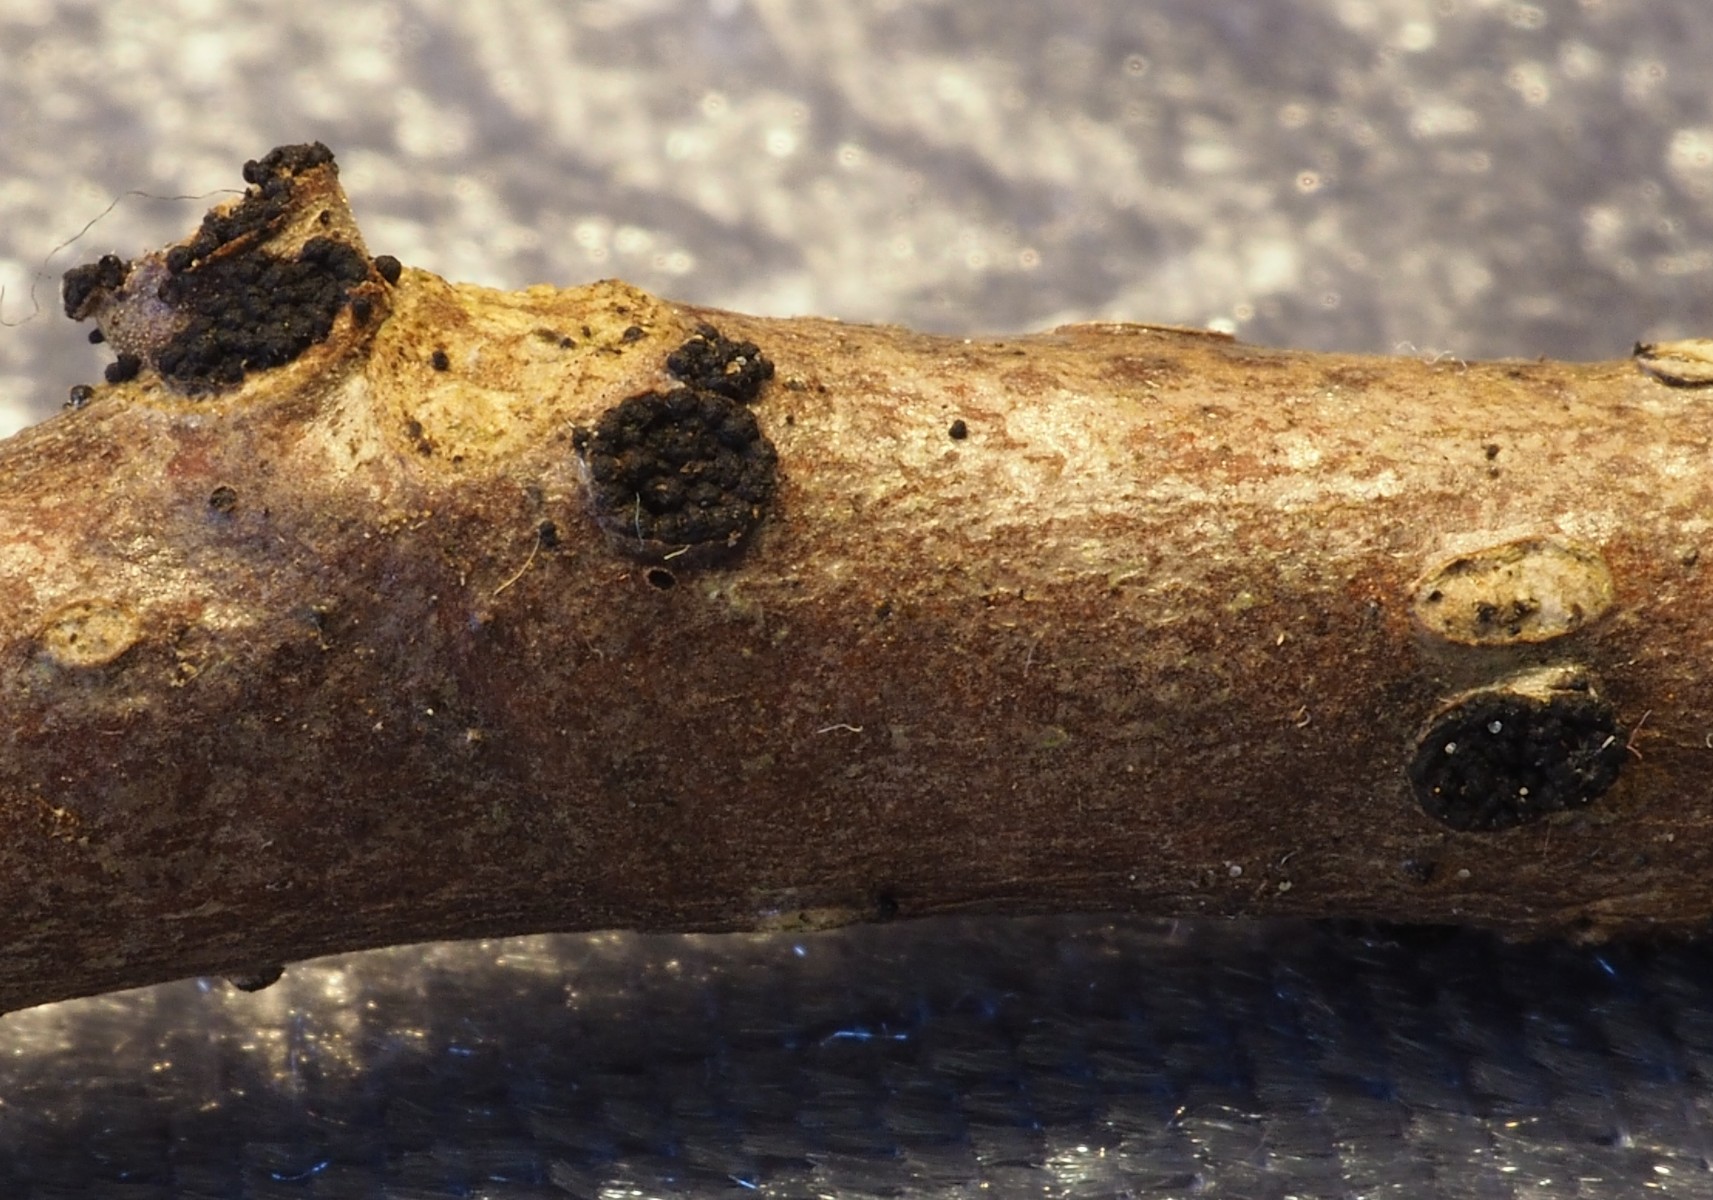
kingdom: Fungi
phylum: Ascomycota
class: Dothideomycetes
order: Pleosporales
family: Melanommataceae
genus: Melanomma
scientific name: Melanomma
